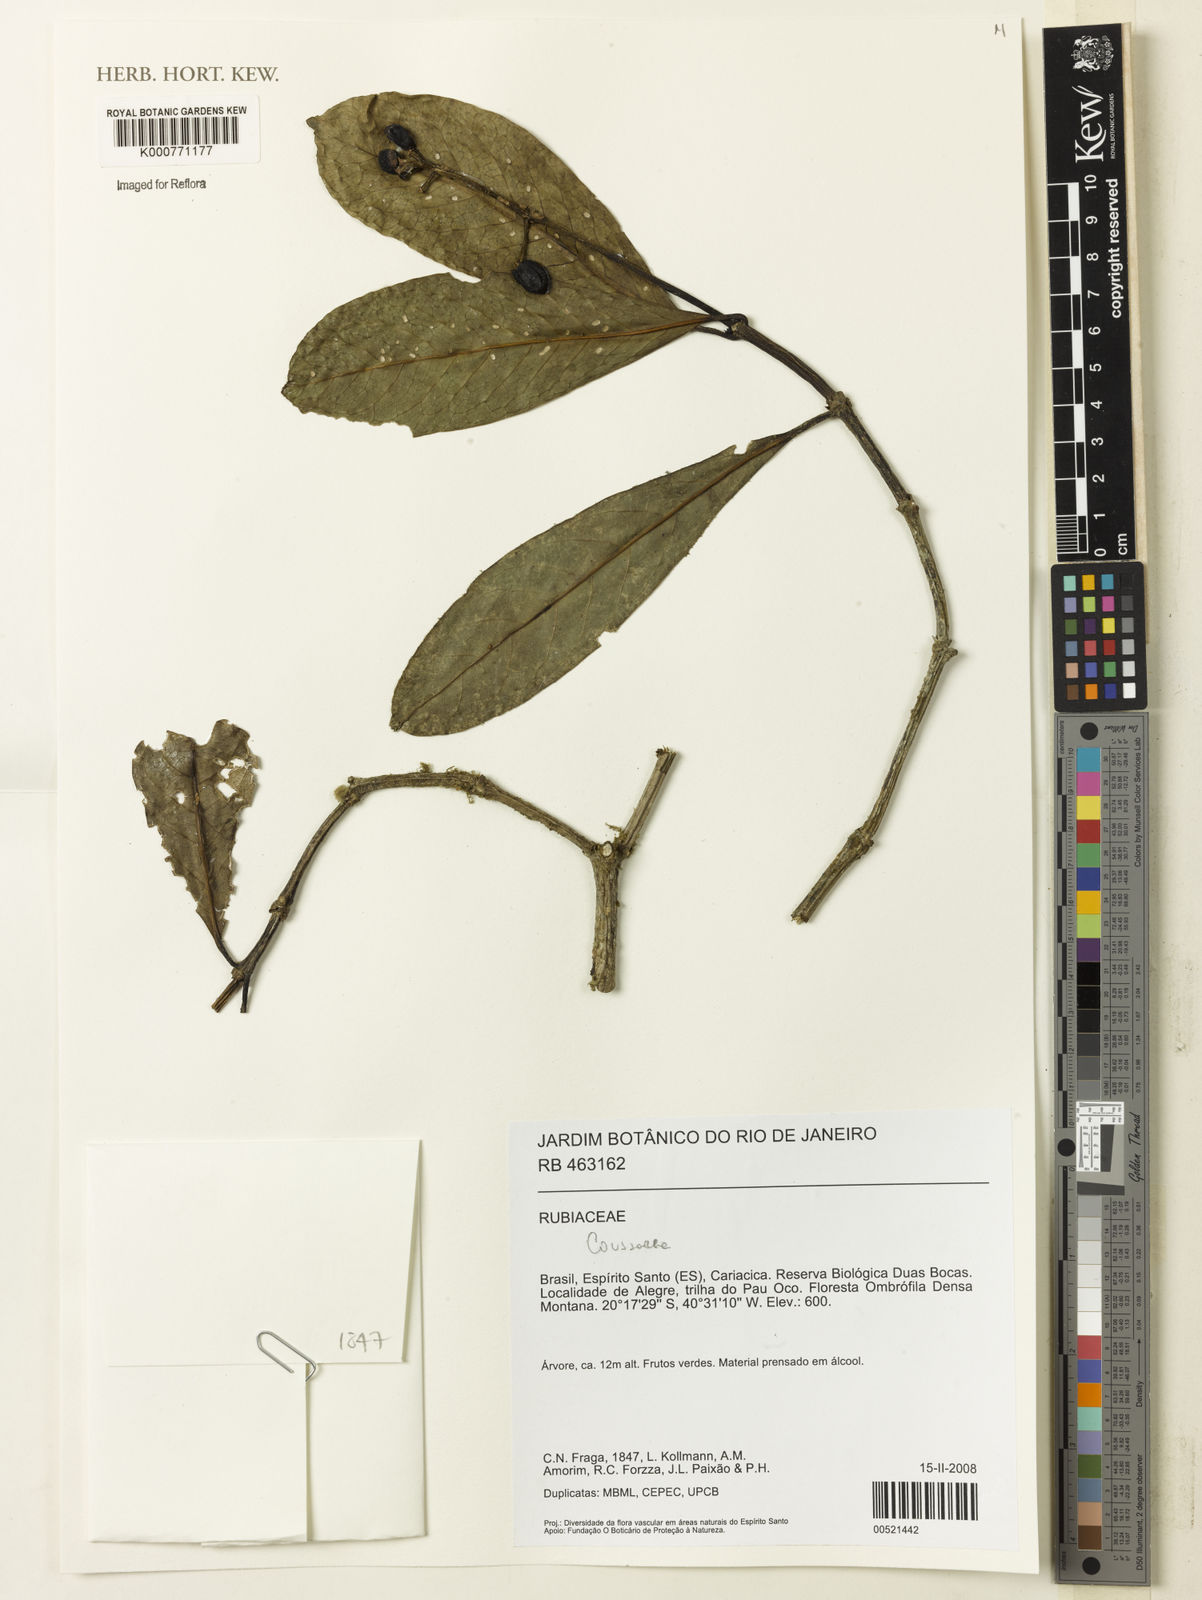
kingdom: Plantae
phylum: Tracheophyta
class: Magnoliopsida
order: Gentianales
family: Rubiaceae
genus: Coussarea
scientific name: Coussarea
